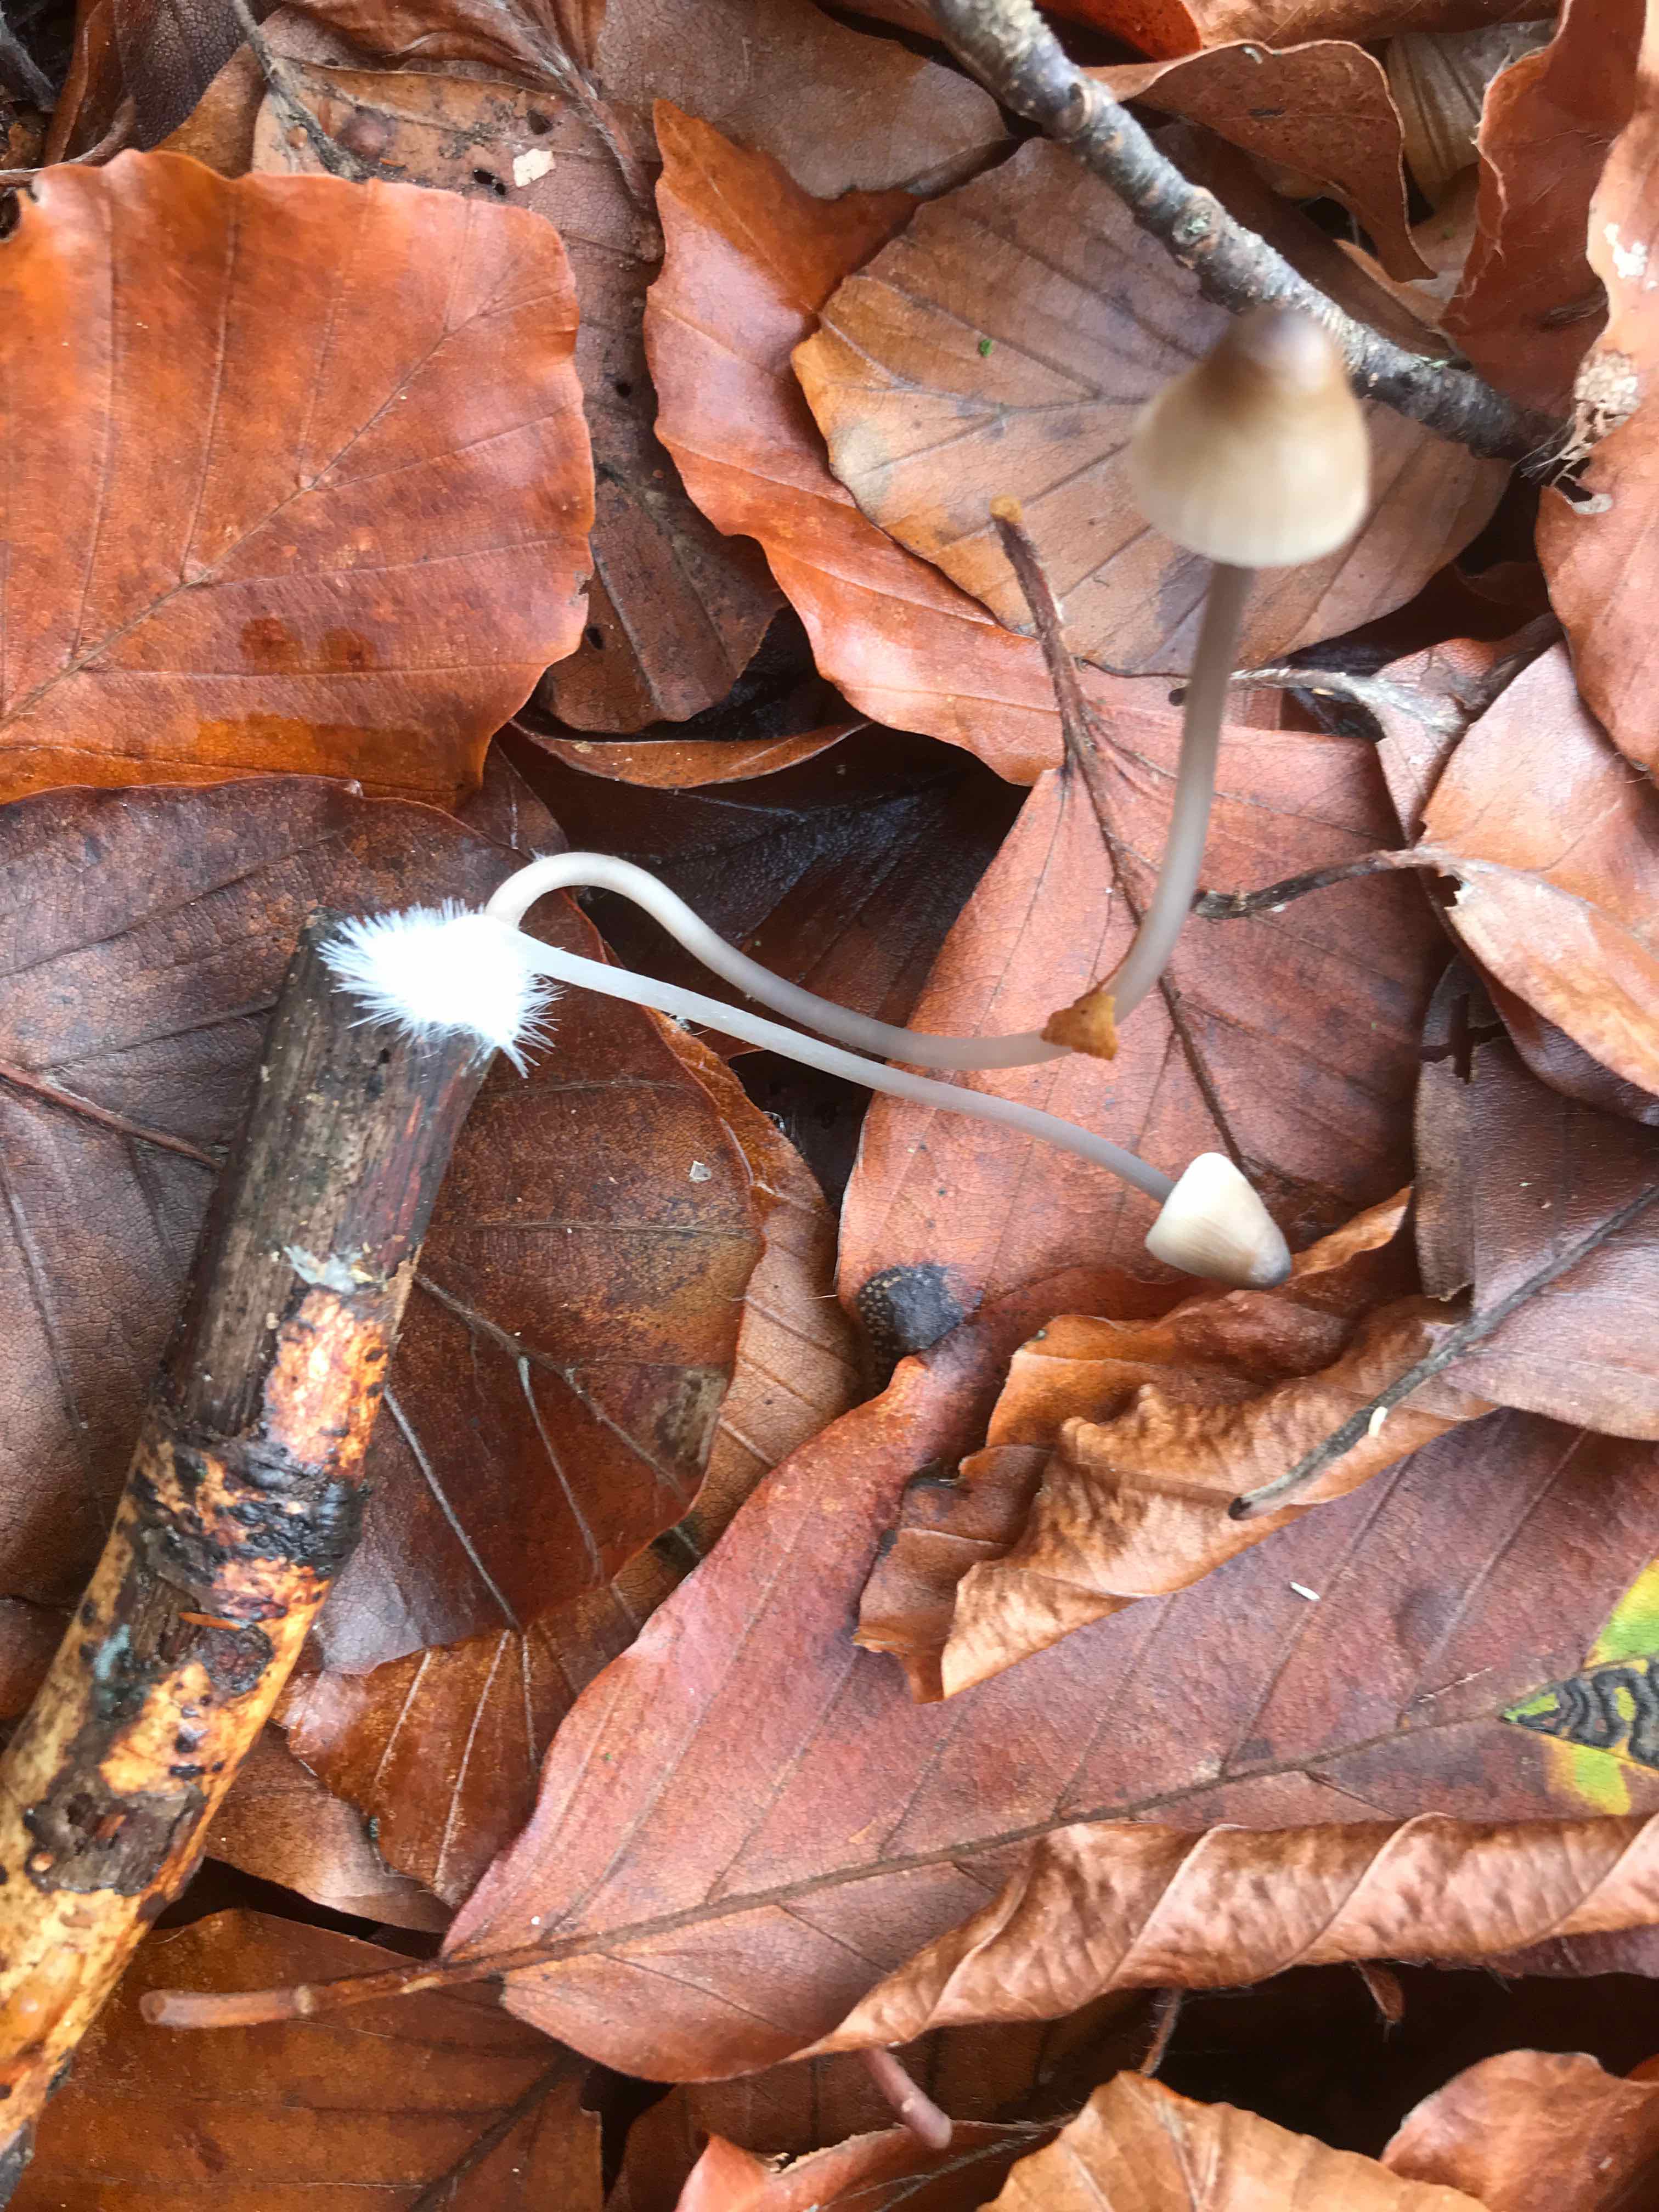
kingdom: Fungi
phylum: Basidiomycota
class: Agaricomycetes
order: Agaricales
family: Mycenaceae
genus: Mycena
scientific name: Mycena
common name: huesvamp
